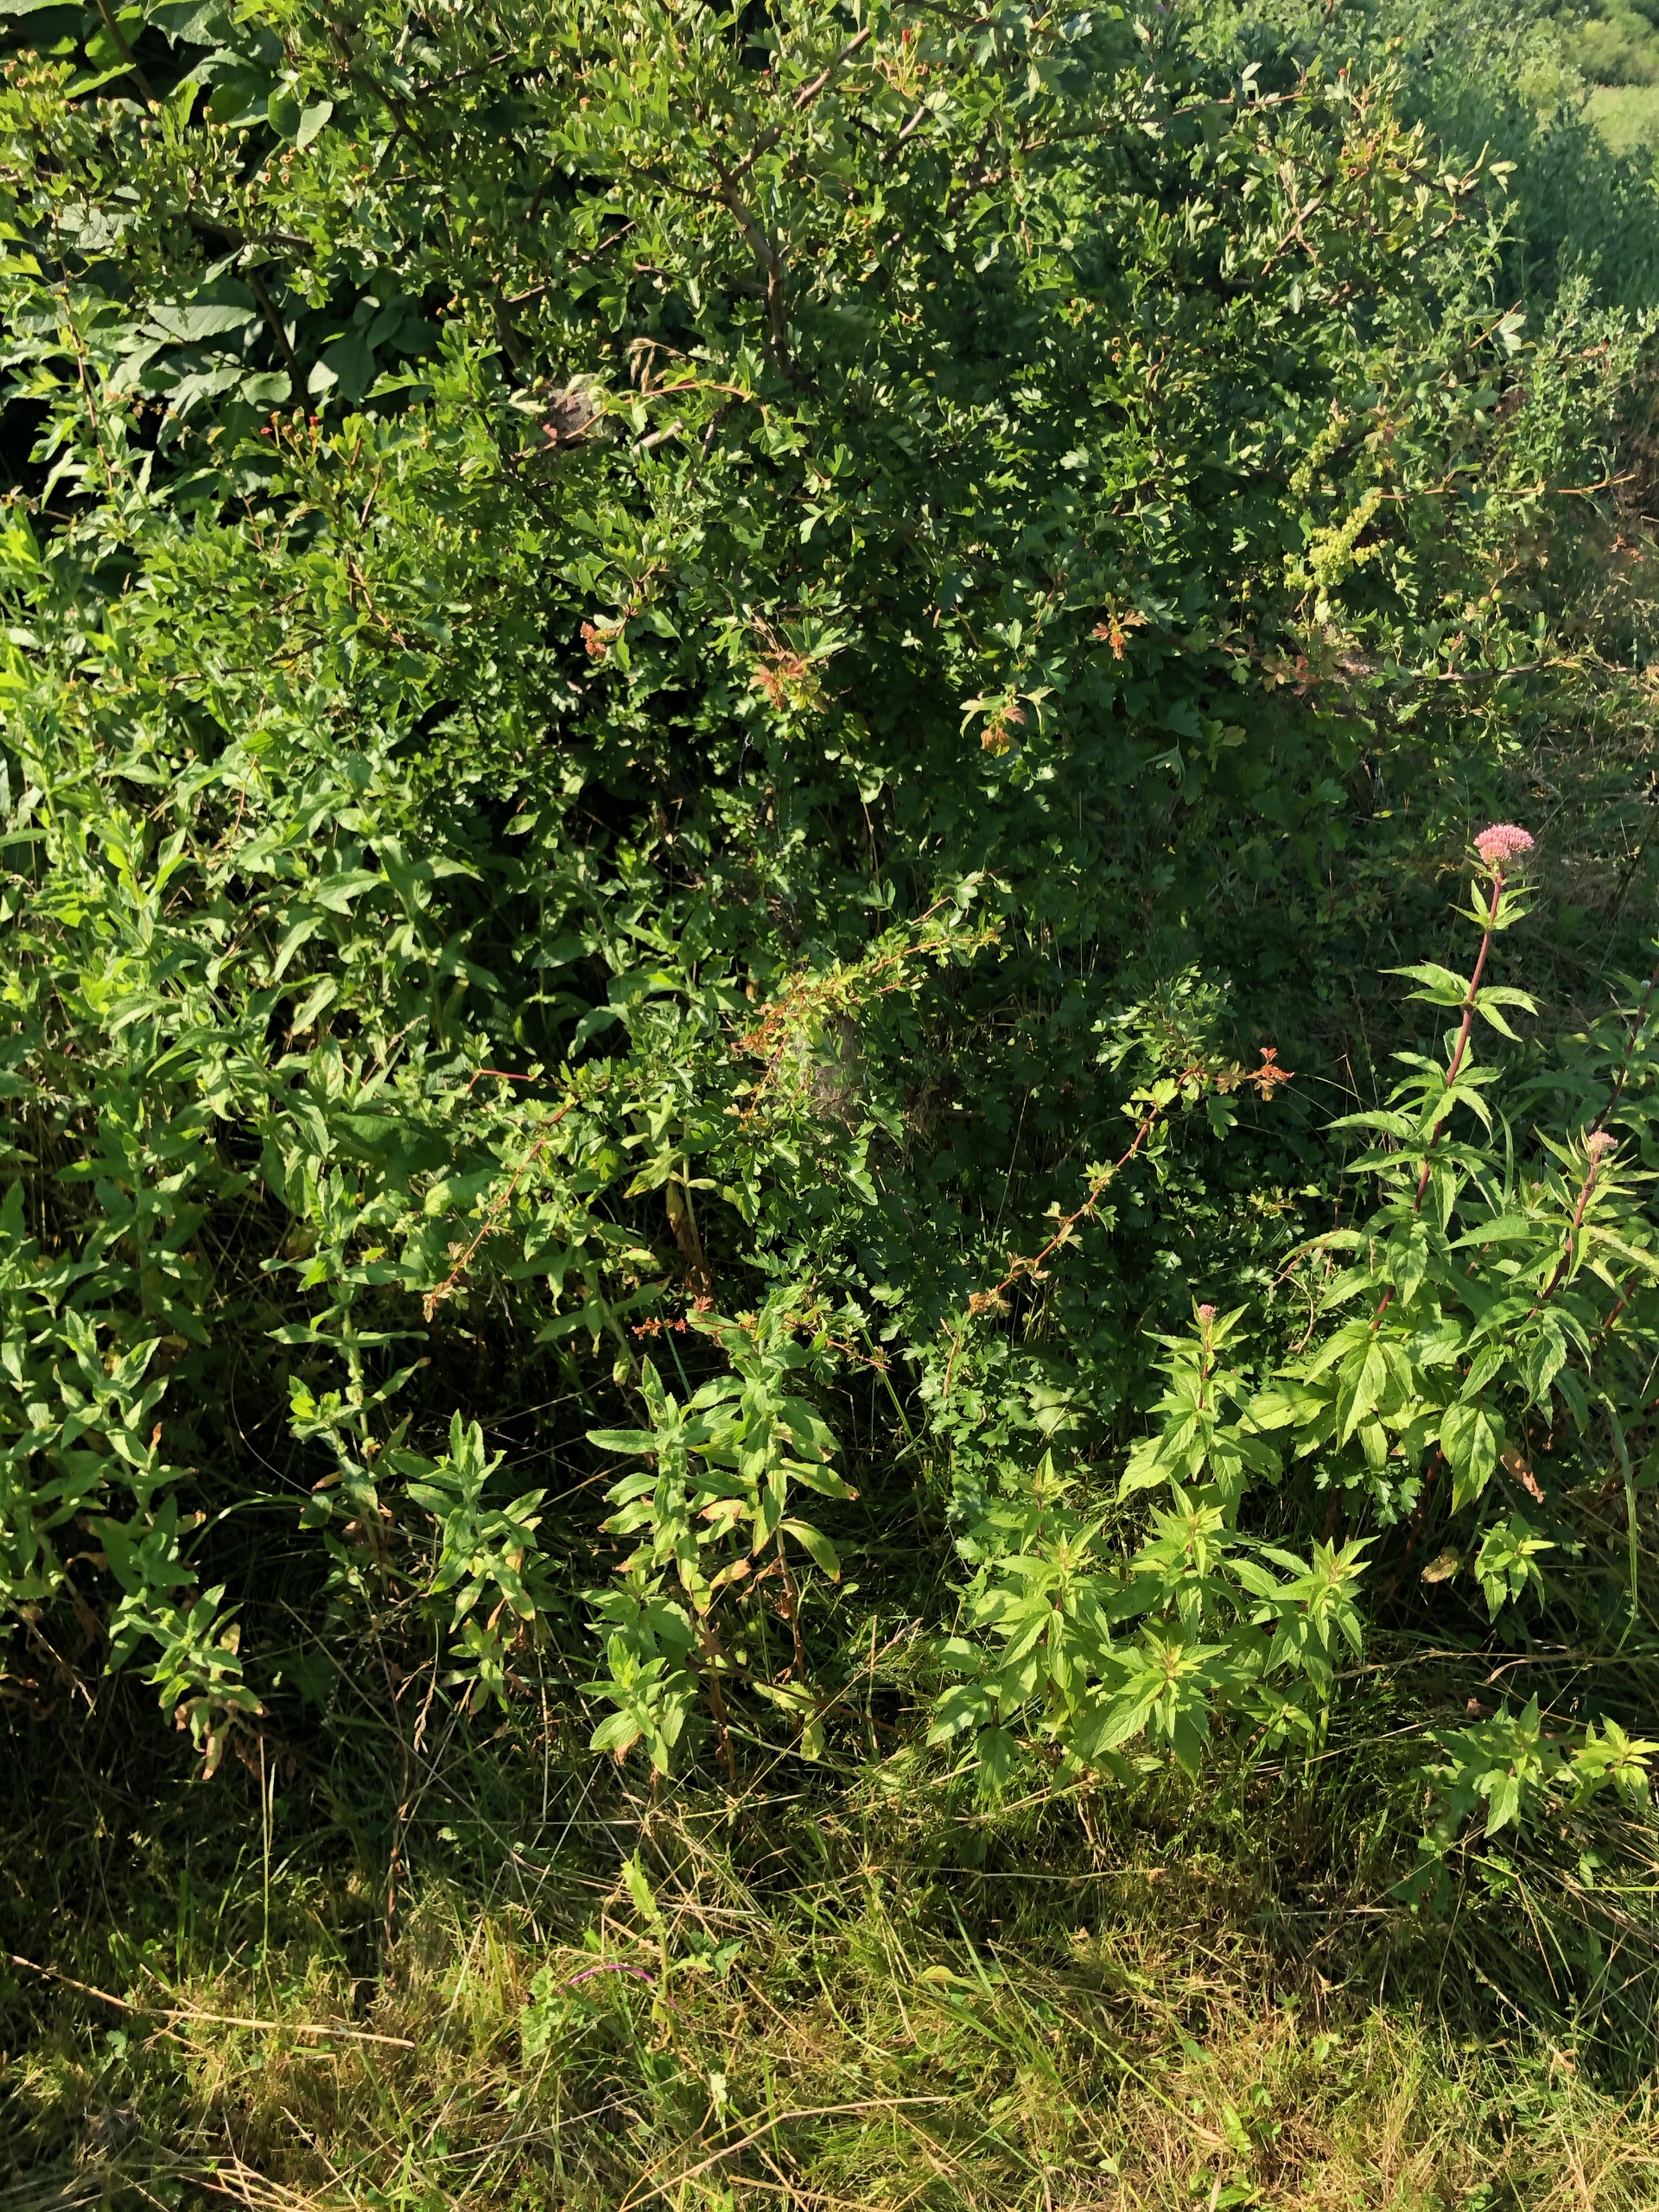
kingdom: Plantae
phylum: Tracheophyta
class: Magnoliopsida
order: Rosales
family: Rosaceae
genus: Crataegus
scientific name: Crataegus monogyna
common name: Engriflet hvidtjørn
